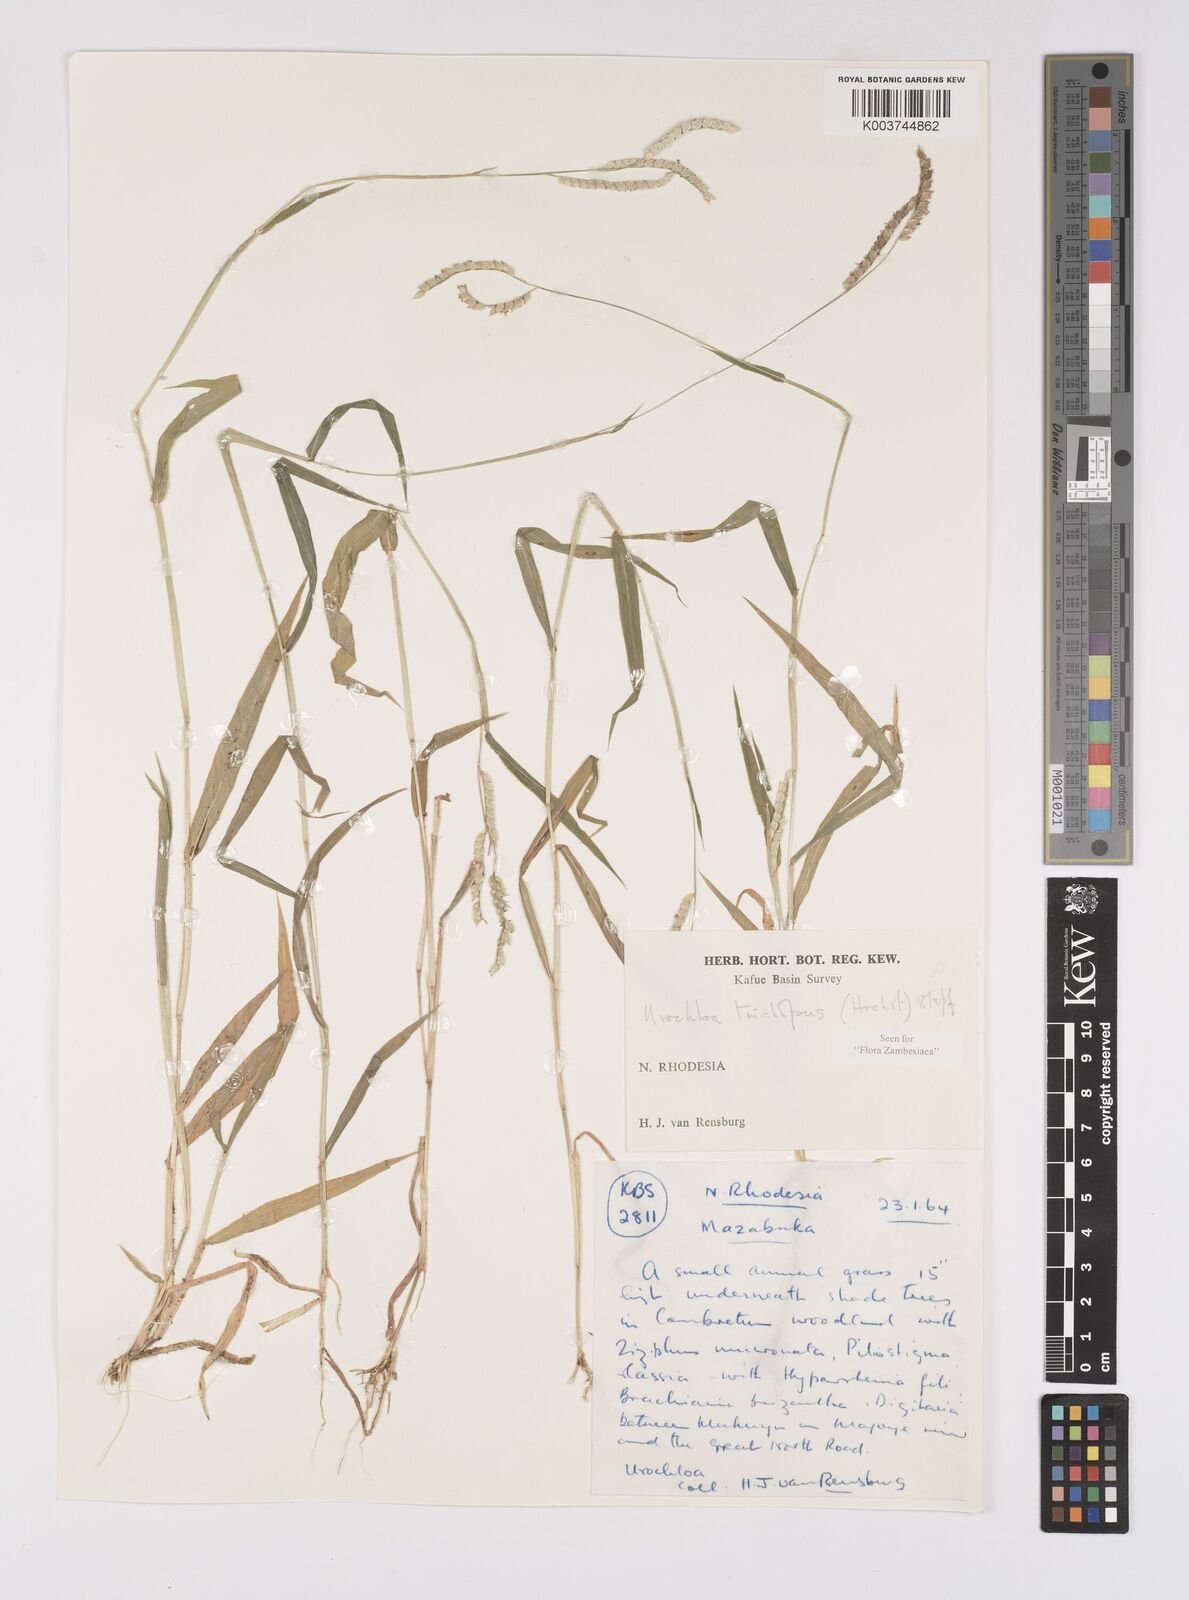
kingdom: Plantae
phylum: Tracheophyta
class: Liliopsida
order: Poales
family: Poaceae
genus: Urochloa
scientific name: Urochloa trichopus
